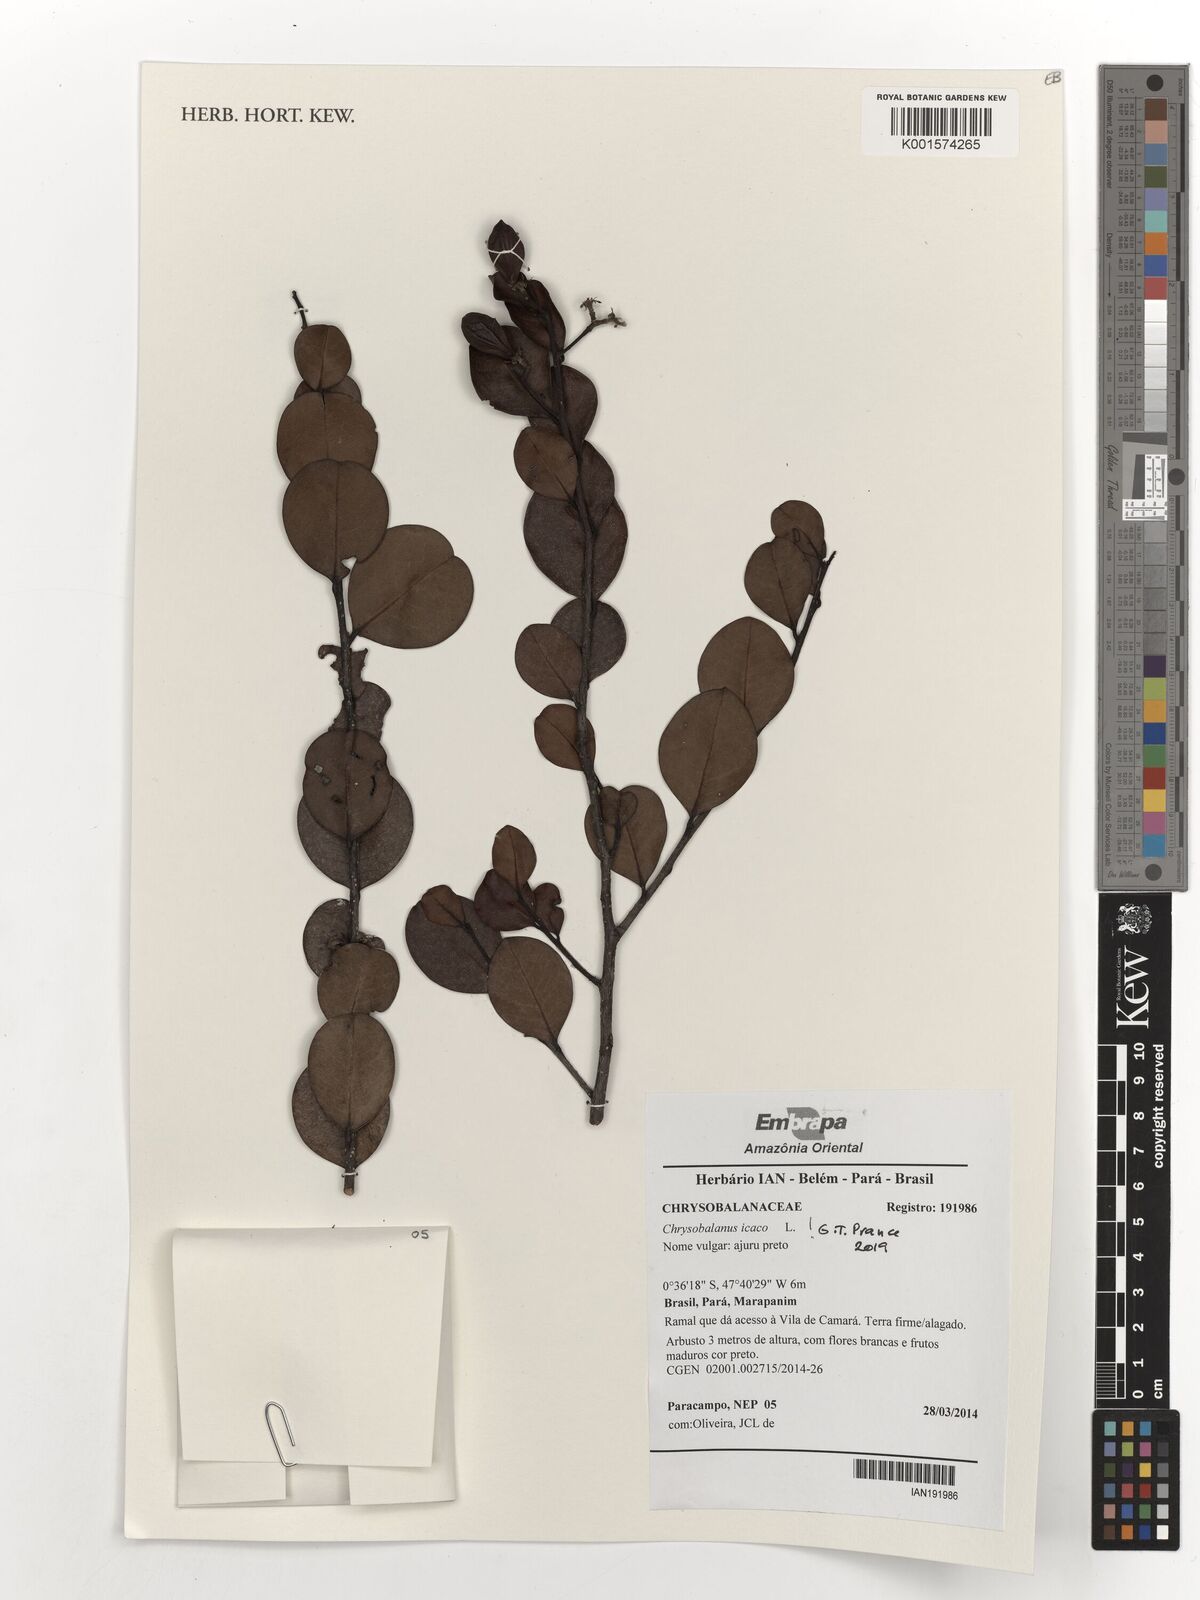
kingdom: Plantae
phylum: Tracheophyta
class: Magnoliopsida
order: Malpighiales
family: Chrysobalanaceae
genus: Chrysobalanus
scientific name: Chrysobalanus icaco
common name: Coco plum
